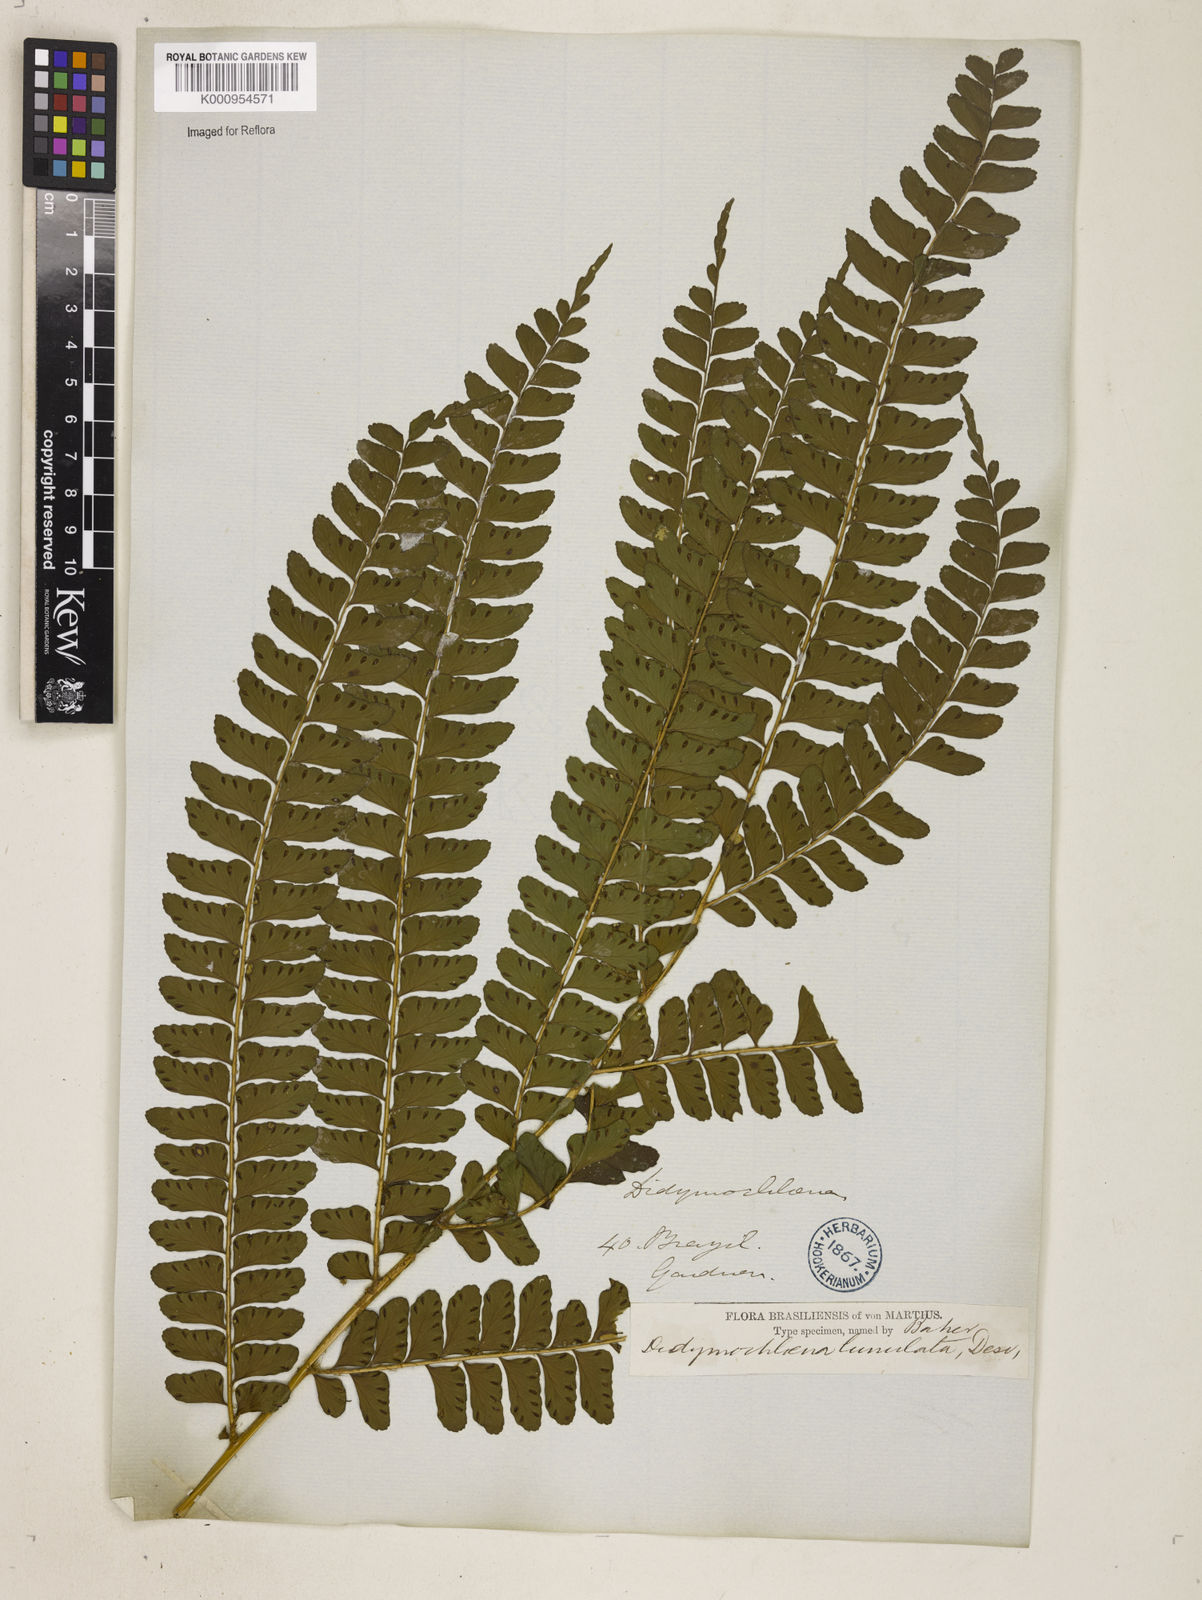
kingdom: Plantae
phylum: Tracheophyta
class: Polypodiopsida
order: Polypodiales
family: Didymochlaenaceae
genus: Didymochlaena
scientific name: Didymochlaena truncatula
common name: Mahogany fern
